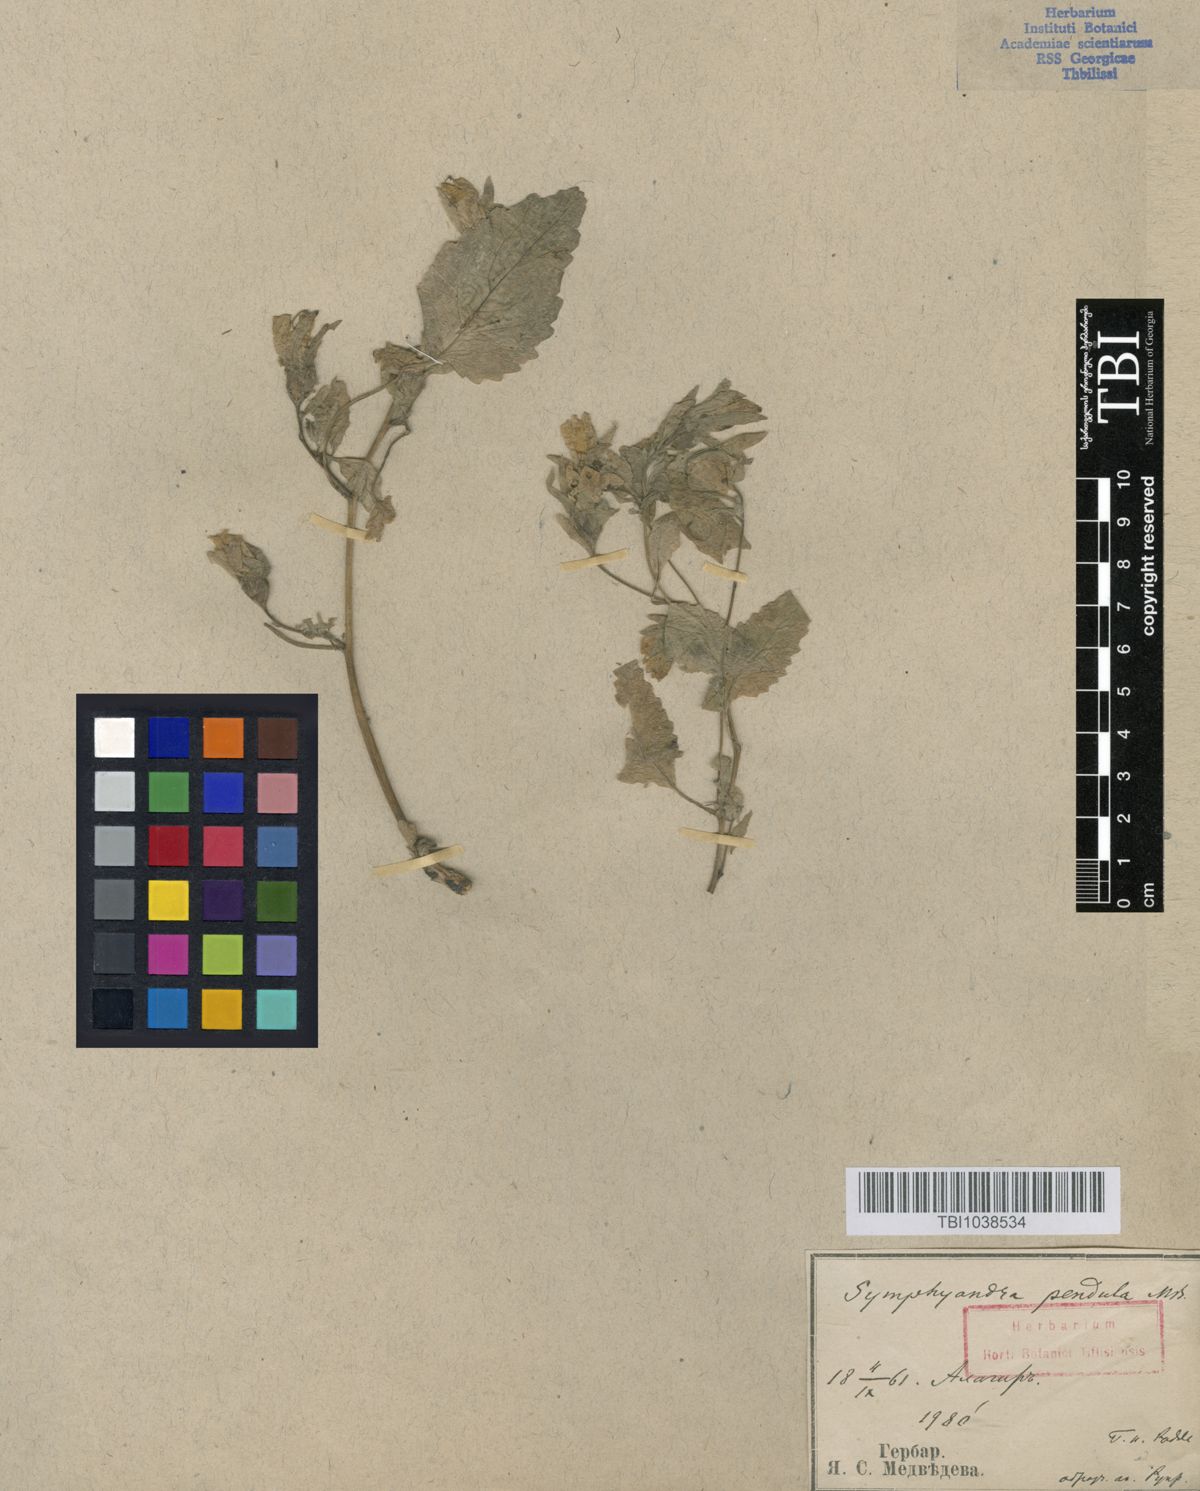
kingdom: Plantae
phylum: Tracheophyta
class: Magnoliopsida
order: Asterales
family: Campanulaceae
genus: Campanula
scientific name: Campanula pendula
